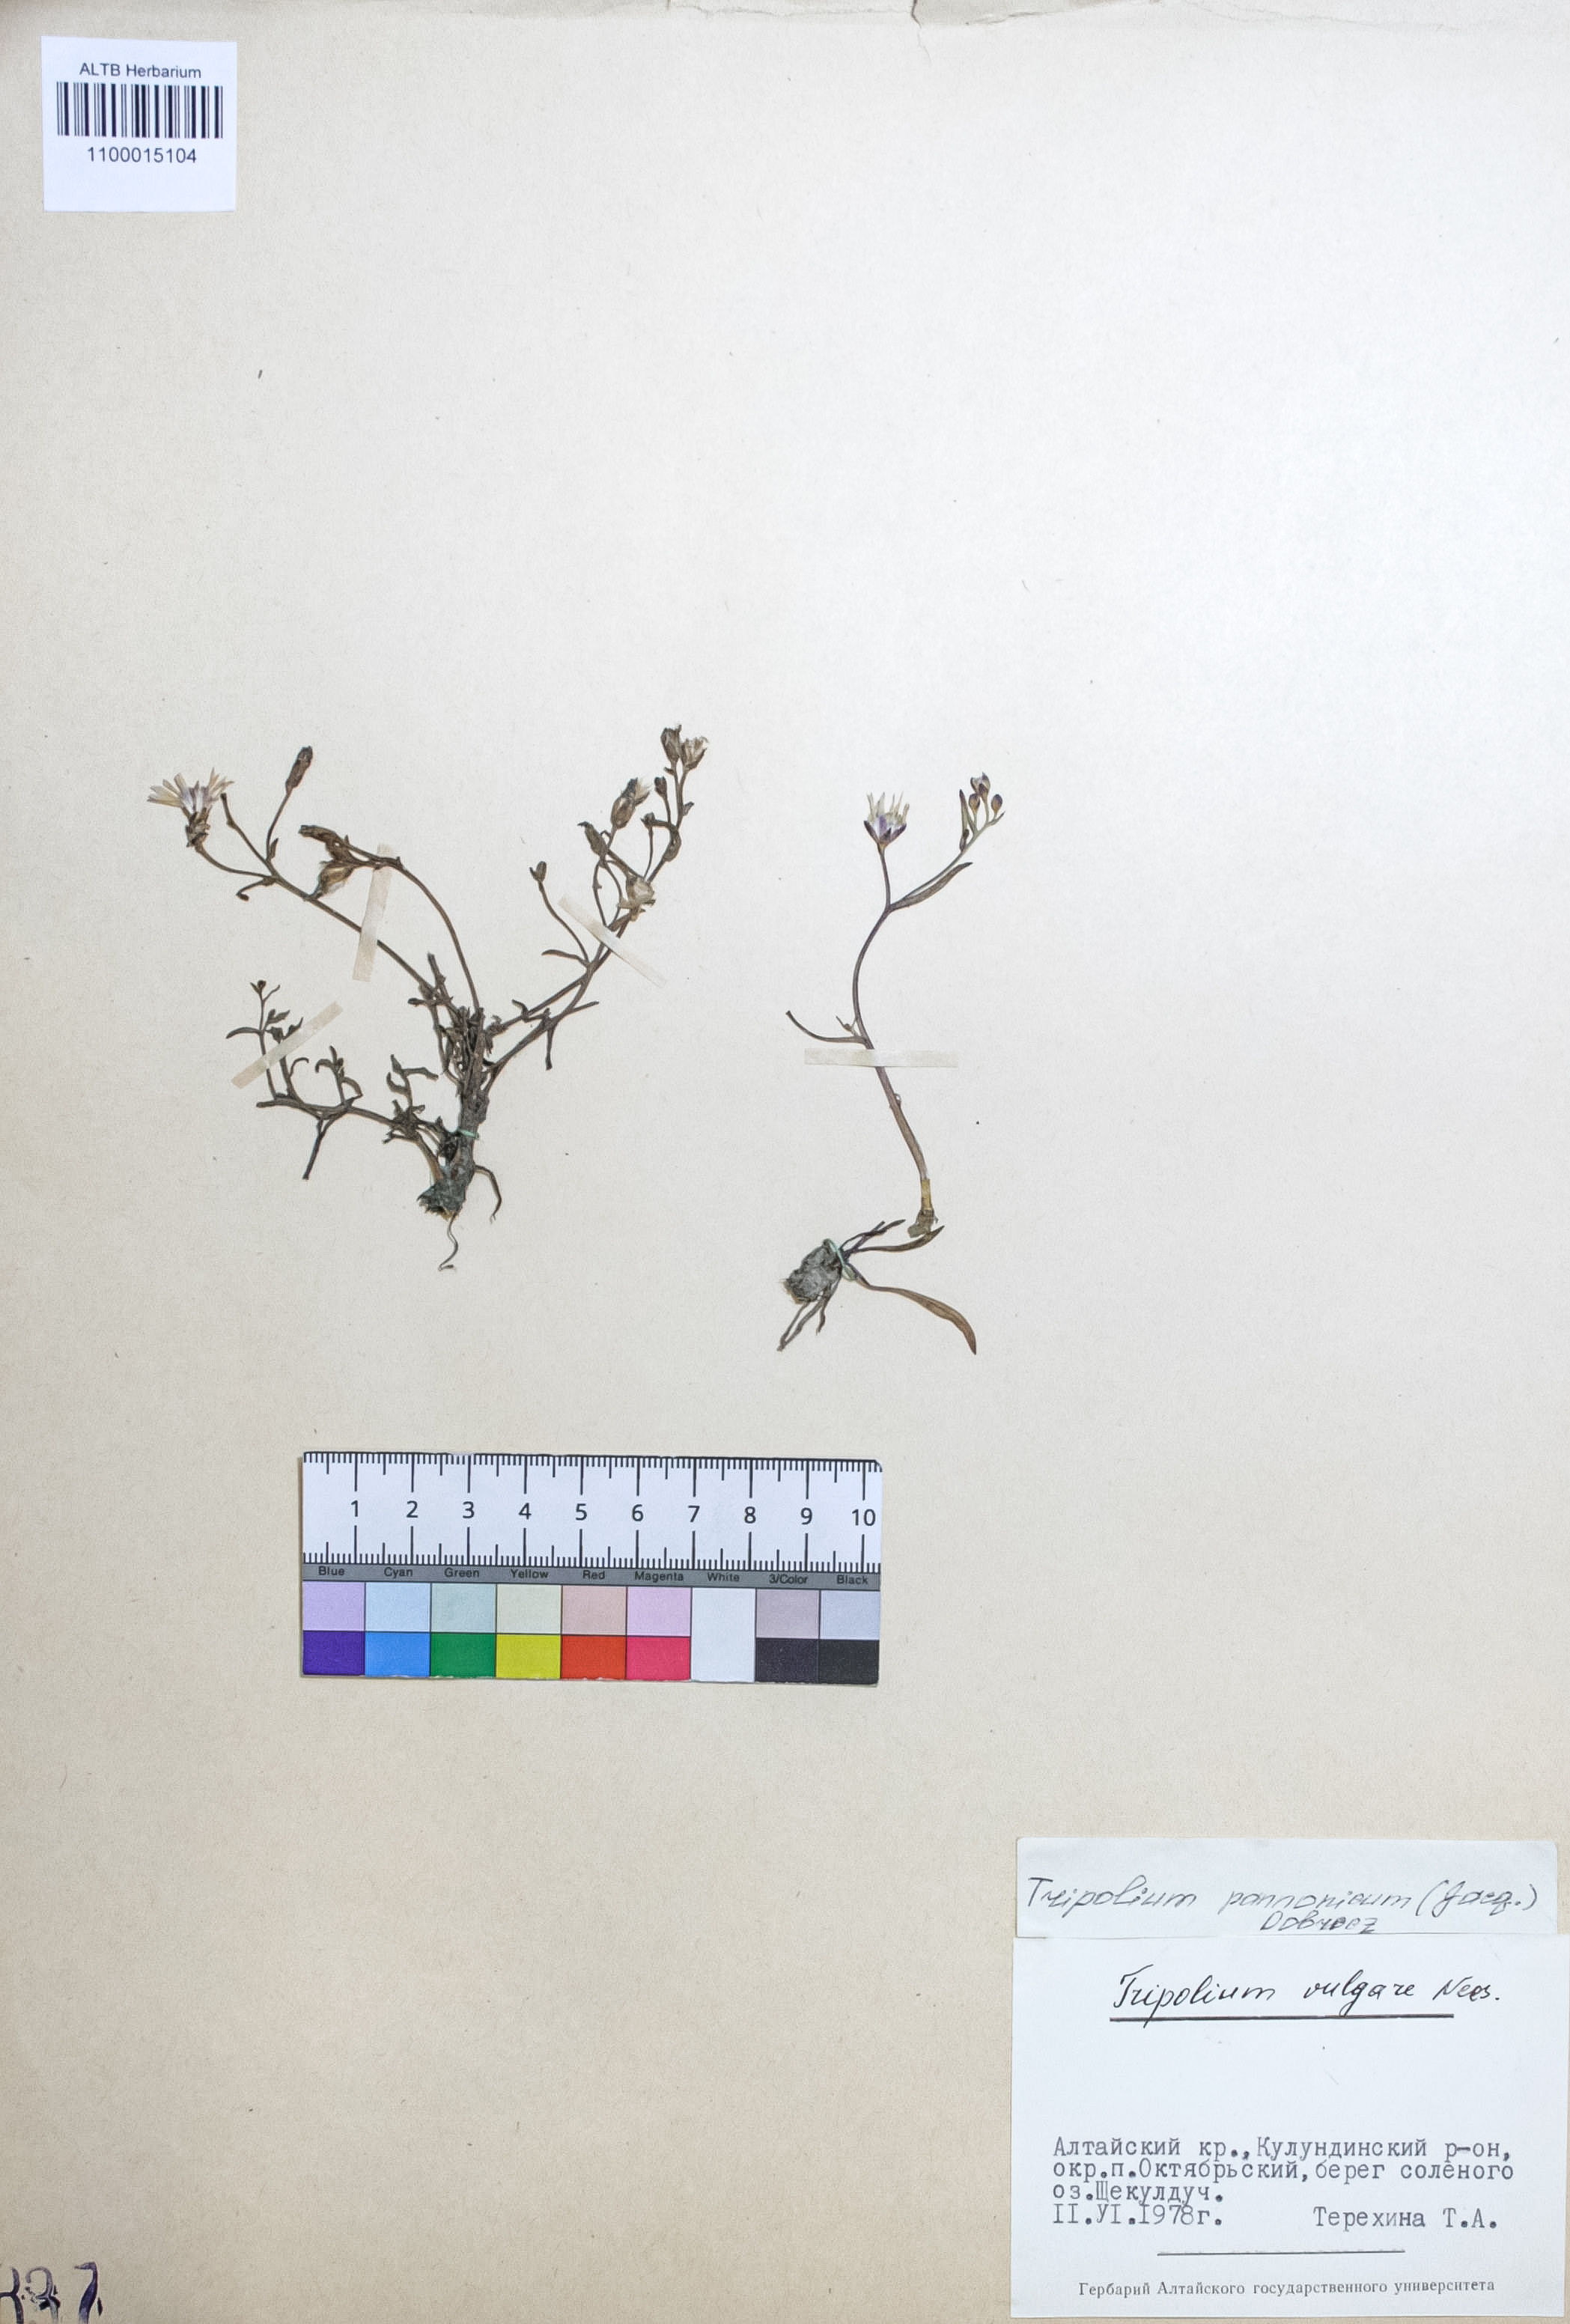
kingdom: Plantae
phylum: Tracheophyta
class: Magnoliopsida
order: Fabales
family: Fabaceae
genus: Trifolium
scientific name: Trifolium pannonicum
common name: Hungarian clover
